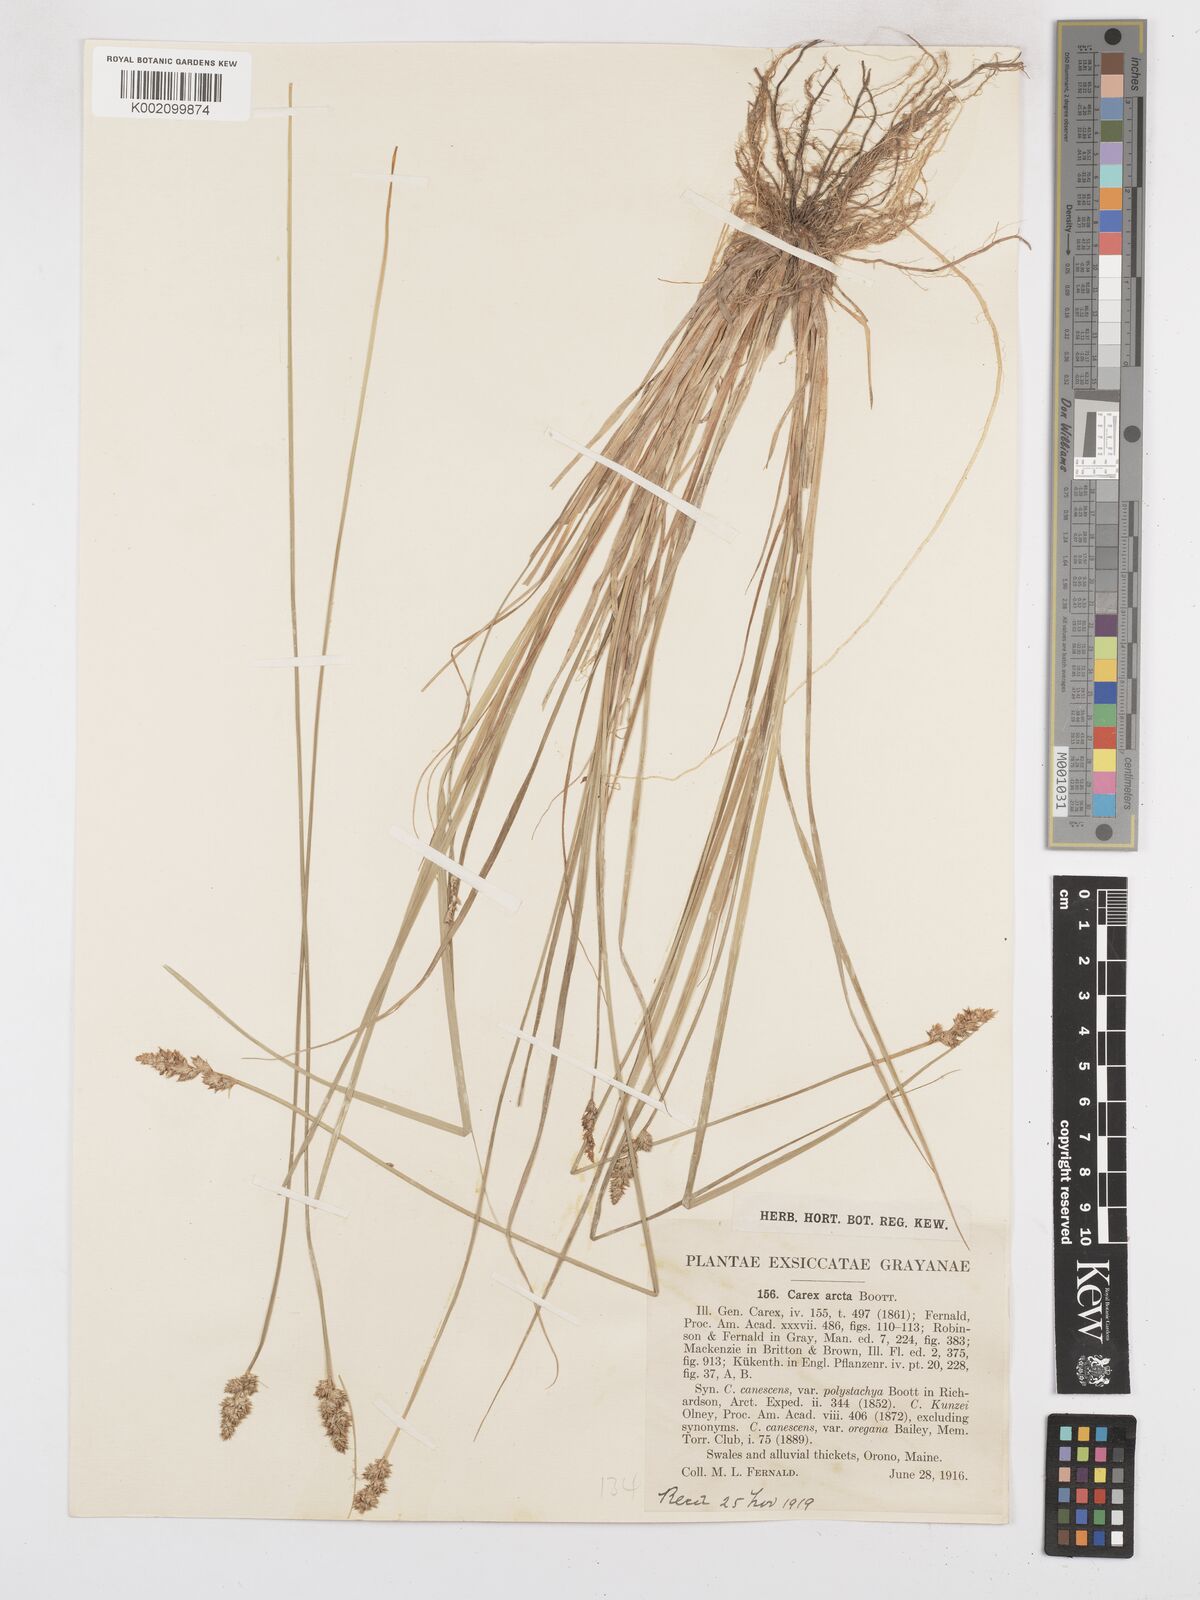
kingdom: Plantae
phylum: Tracheophyta
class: Liliopsida
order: Poales
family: Cyperaceae
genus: Carex
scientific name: Carex arcta
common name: Bear sedge
